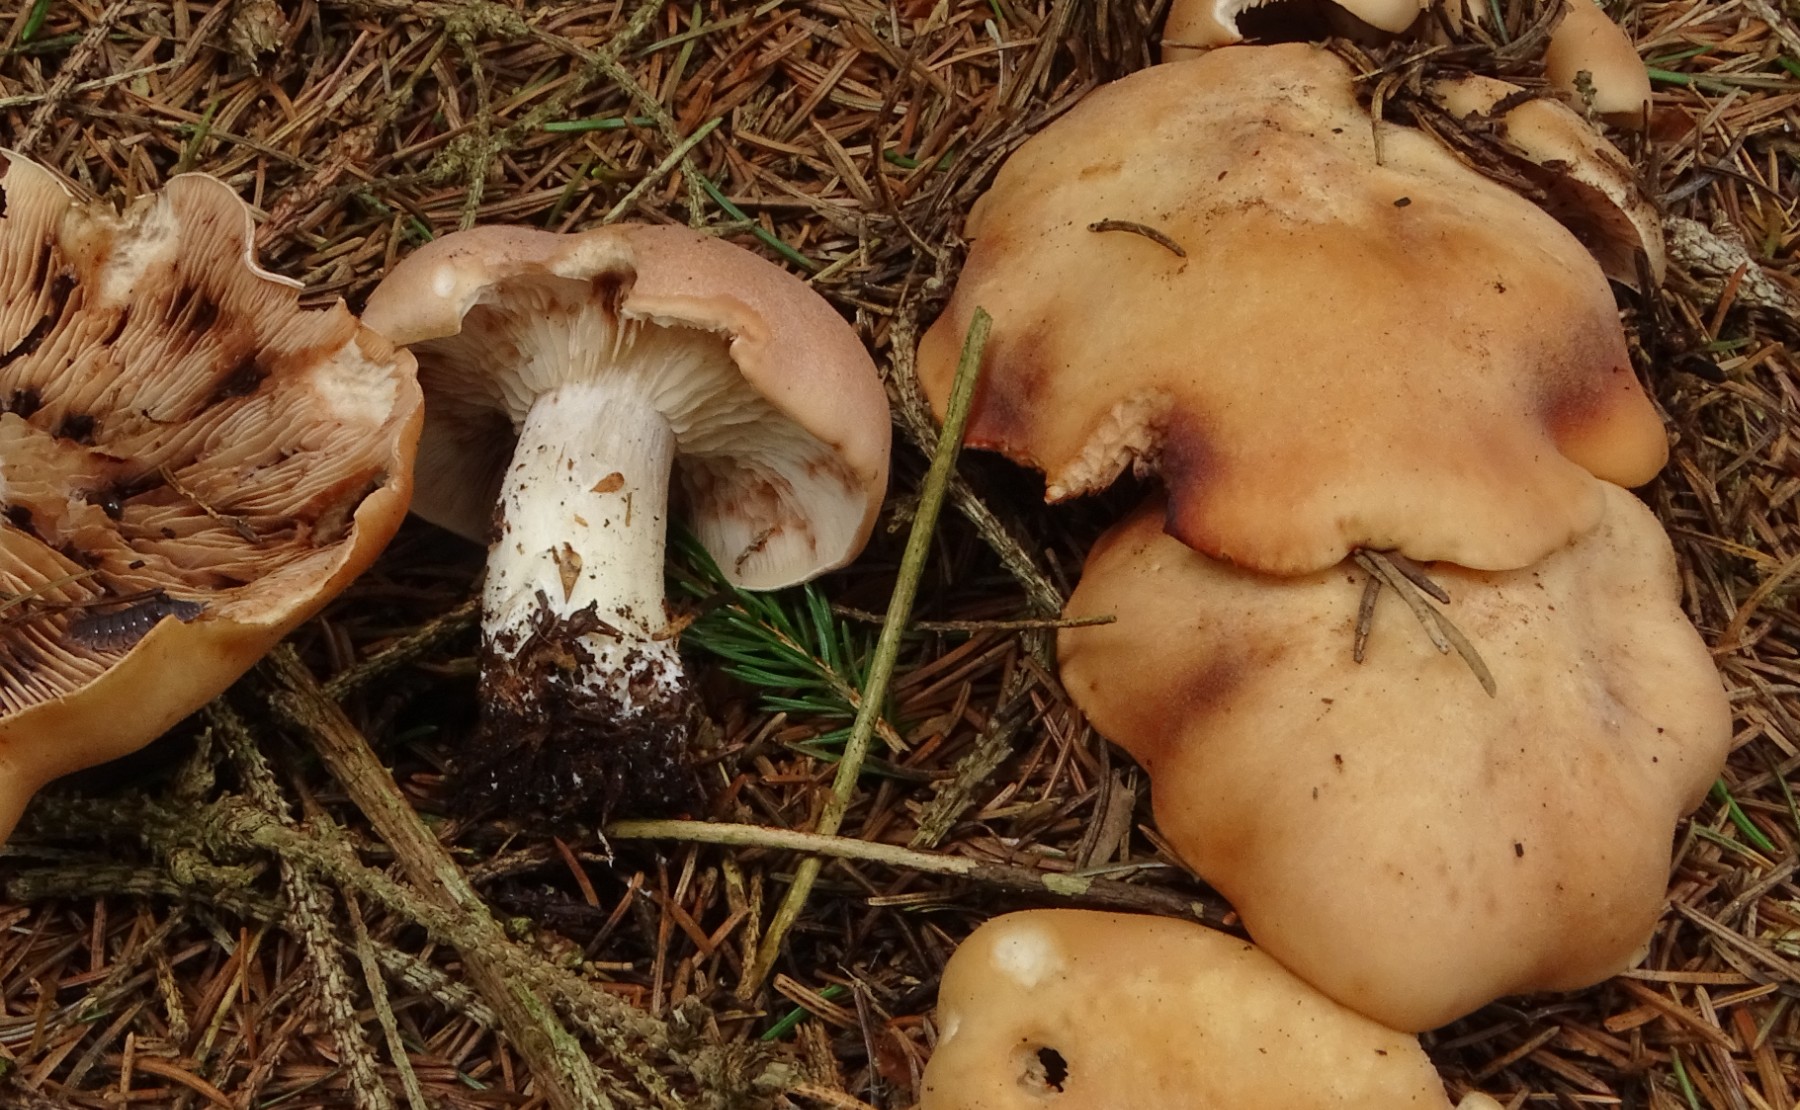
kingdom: Fungi
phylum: Basidiomycota
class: Agaricomycetes
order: Agaricales
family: Entolomataceae
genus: Clitopilus
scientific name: Clitopilus geminus
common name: kødfarvet troldhat
